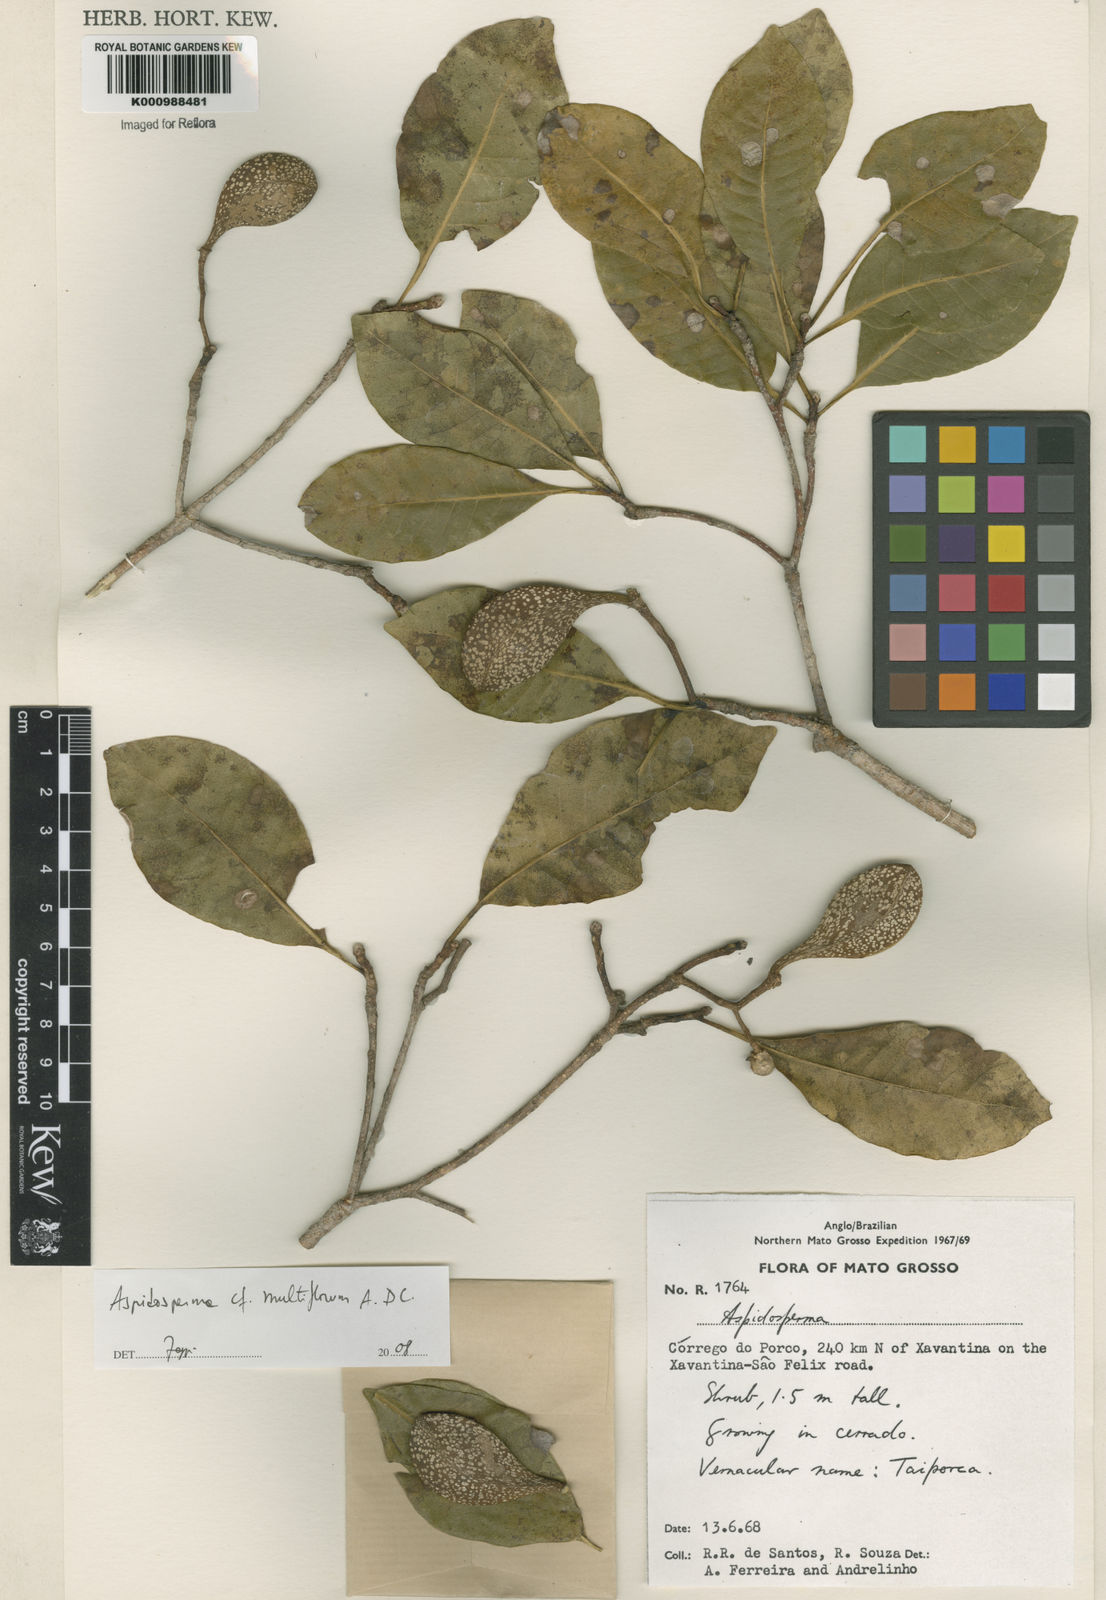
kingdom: Plantae
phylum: Tracheophyta
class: Magnoliopsida
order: Gentianales
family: Apocynaceae
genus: Aspidosperma
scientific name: Aspidosperma multiflorum
